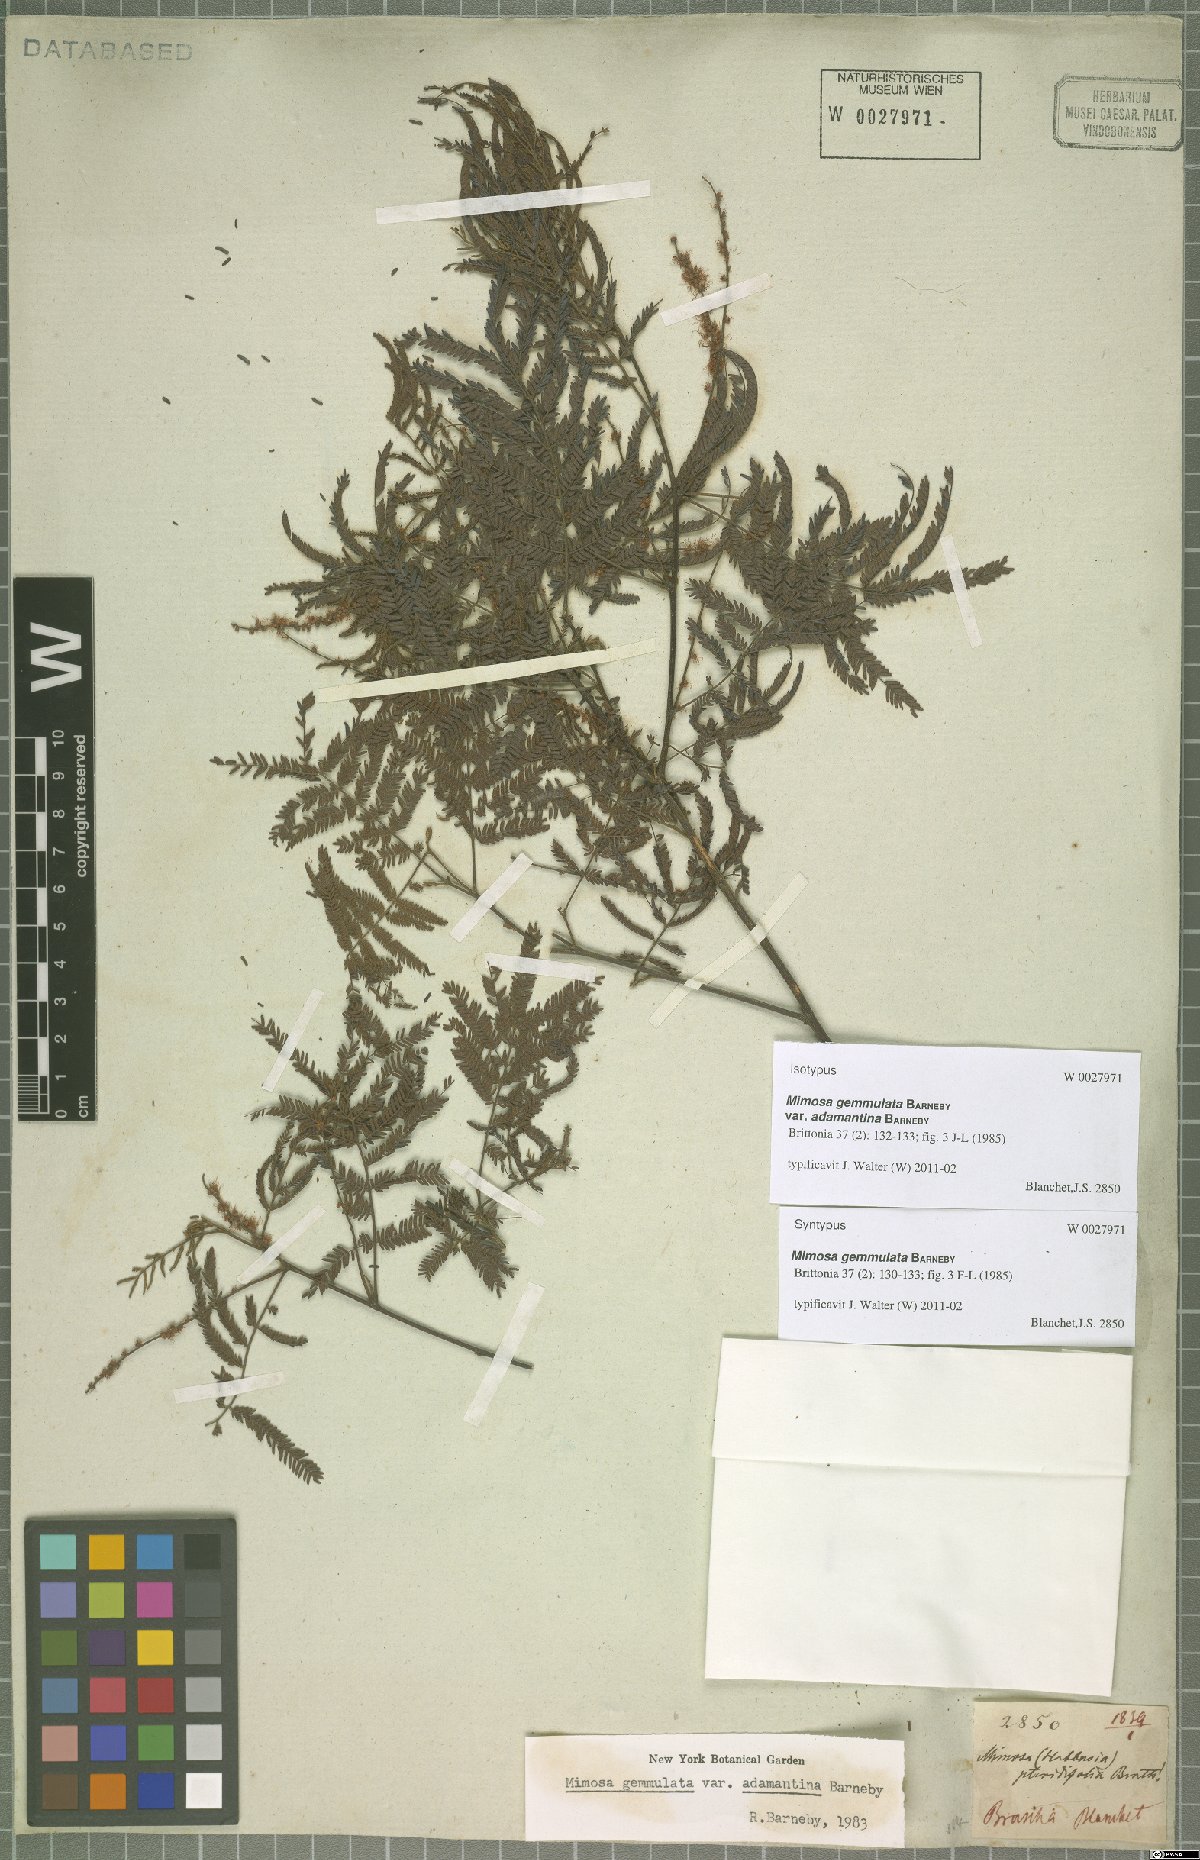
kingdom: Plantae
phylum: Tracheophyta
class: Magnoliopsida
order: Fabales
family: Fabaceae
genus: Mimosa
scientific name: Mimosa gemmulata
